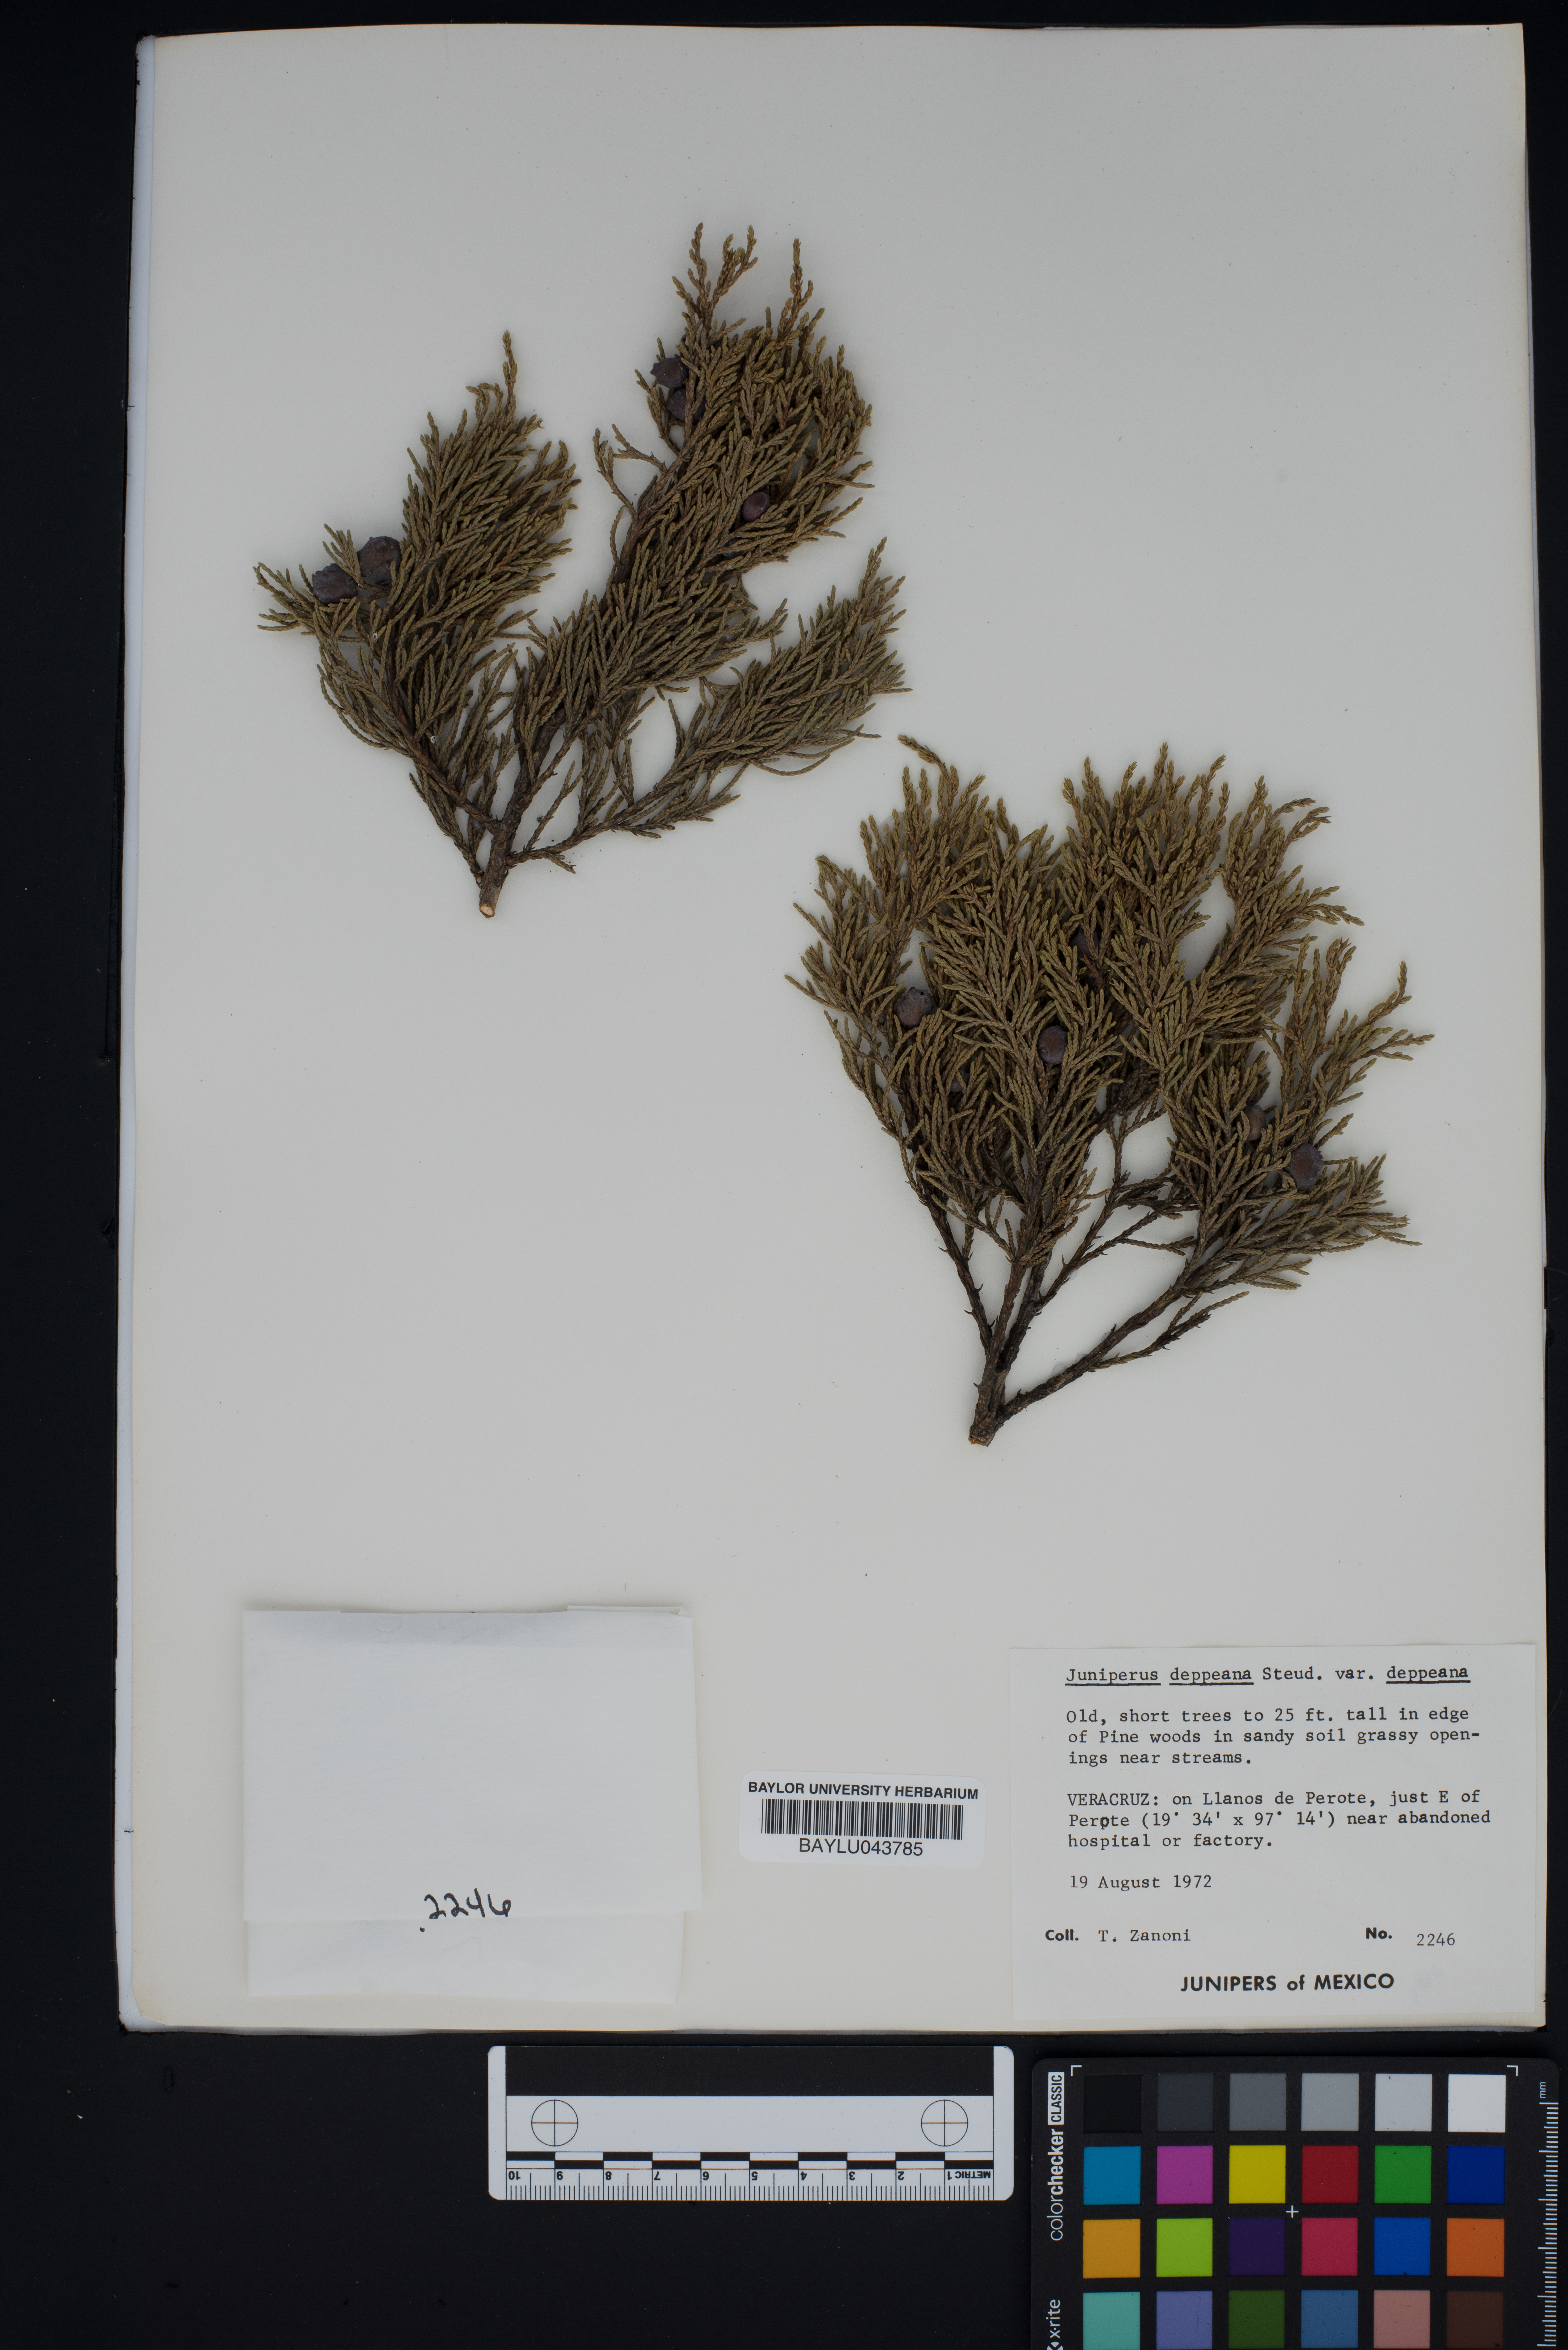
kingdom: Plantae
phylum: Tracheophyta
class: Pinopsida
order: Pinales
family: Cupressaceae
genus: Juniperus
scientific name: Juniperus deppeana
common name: Alligator juniper
